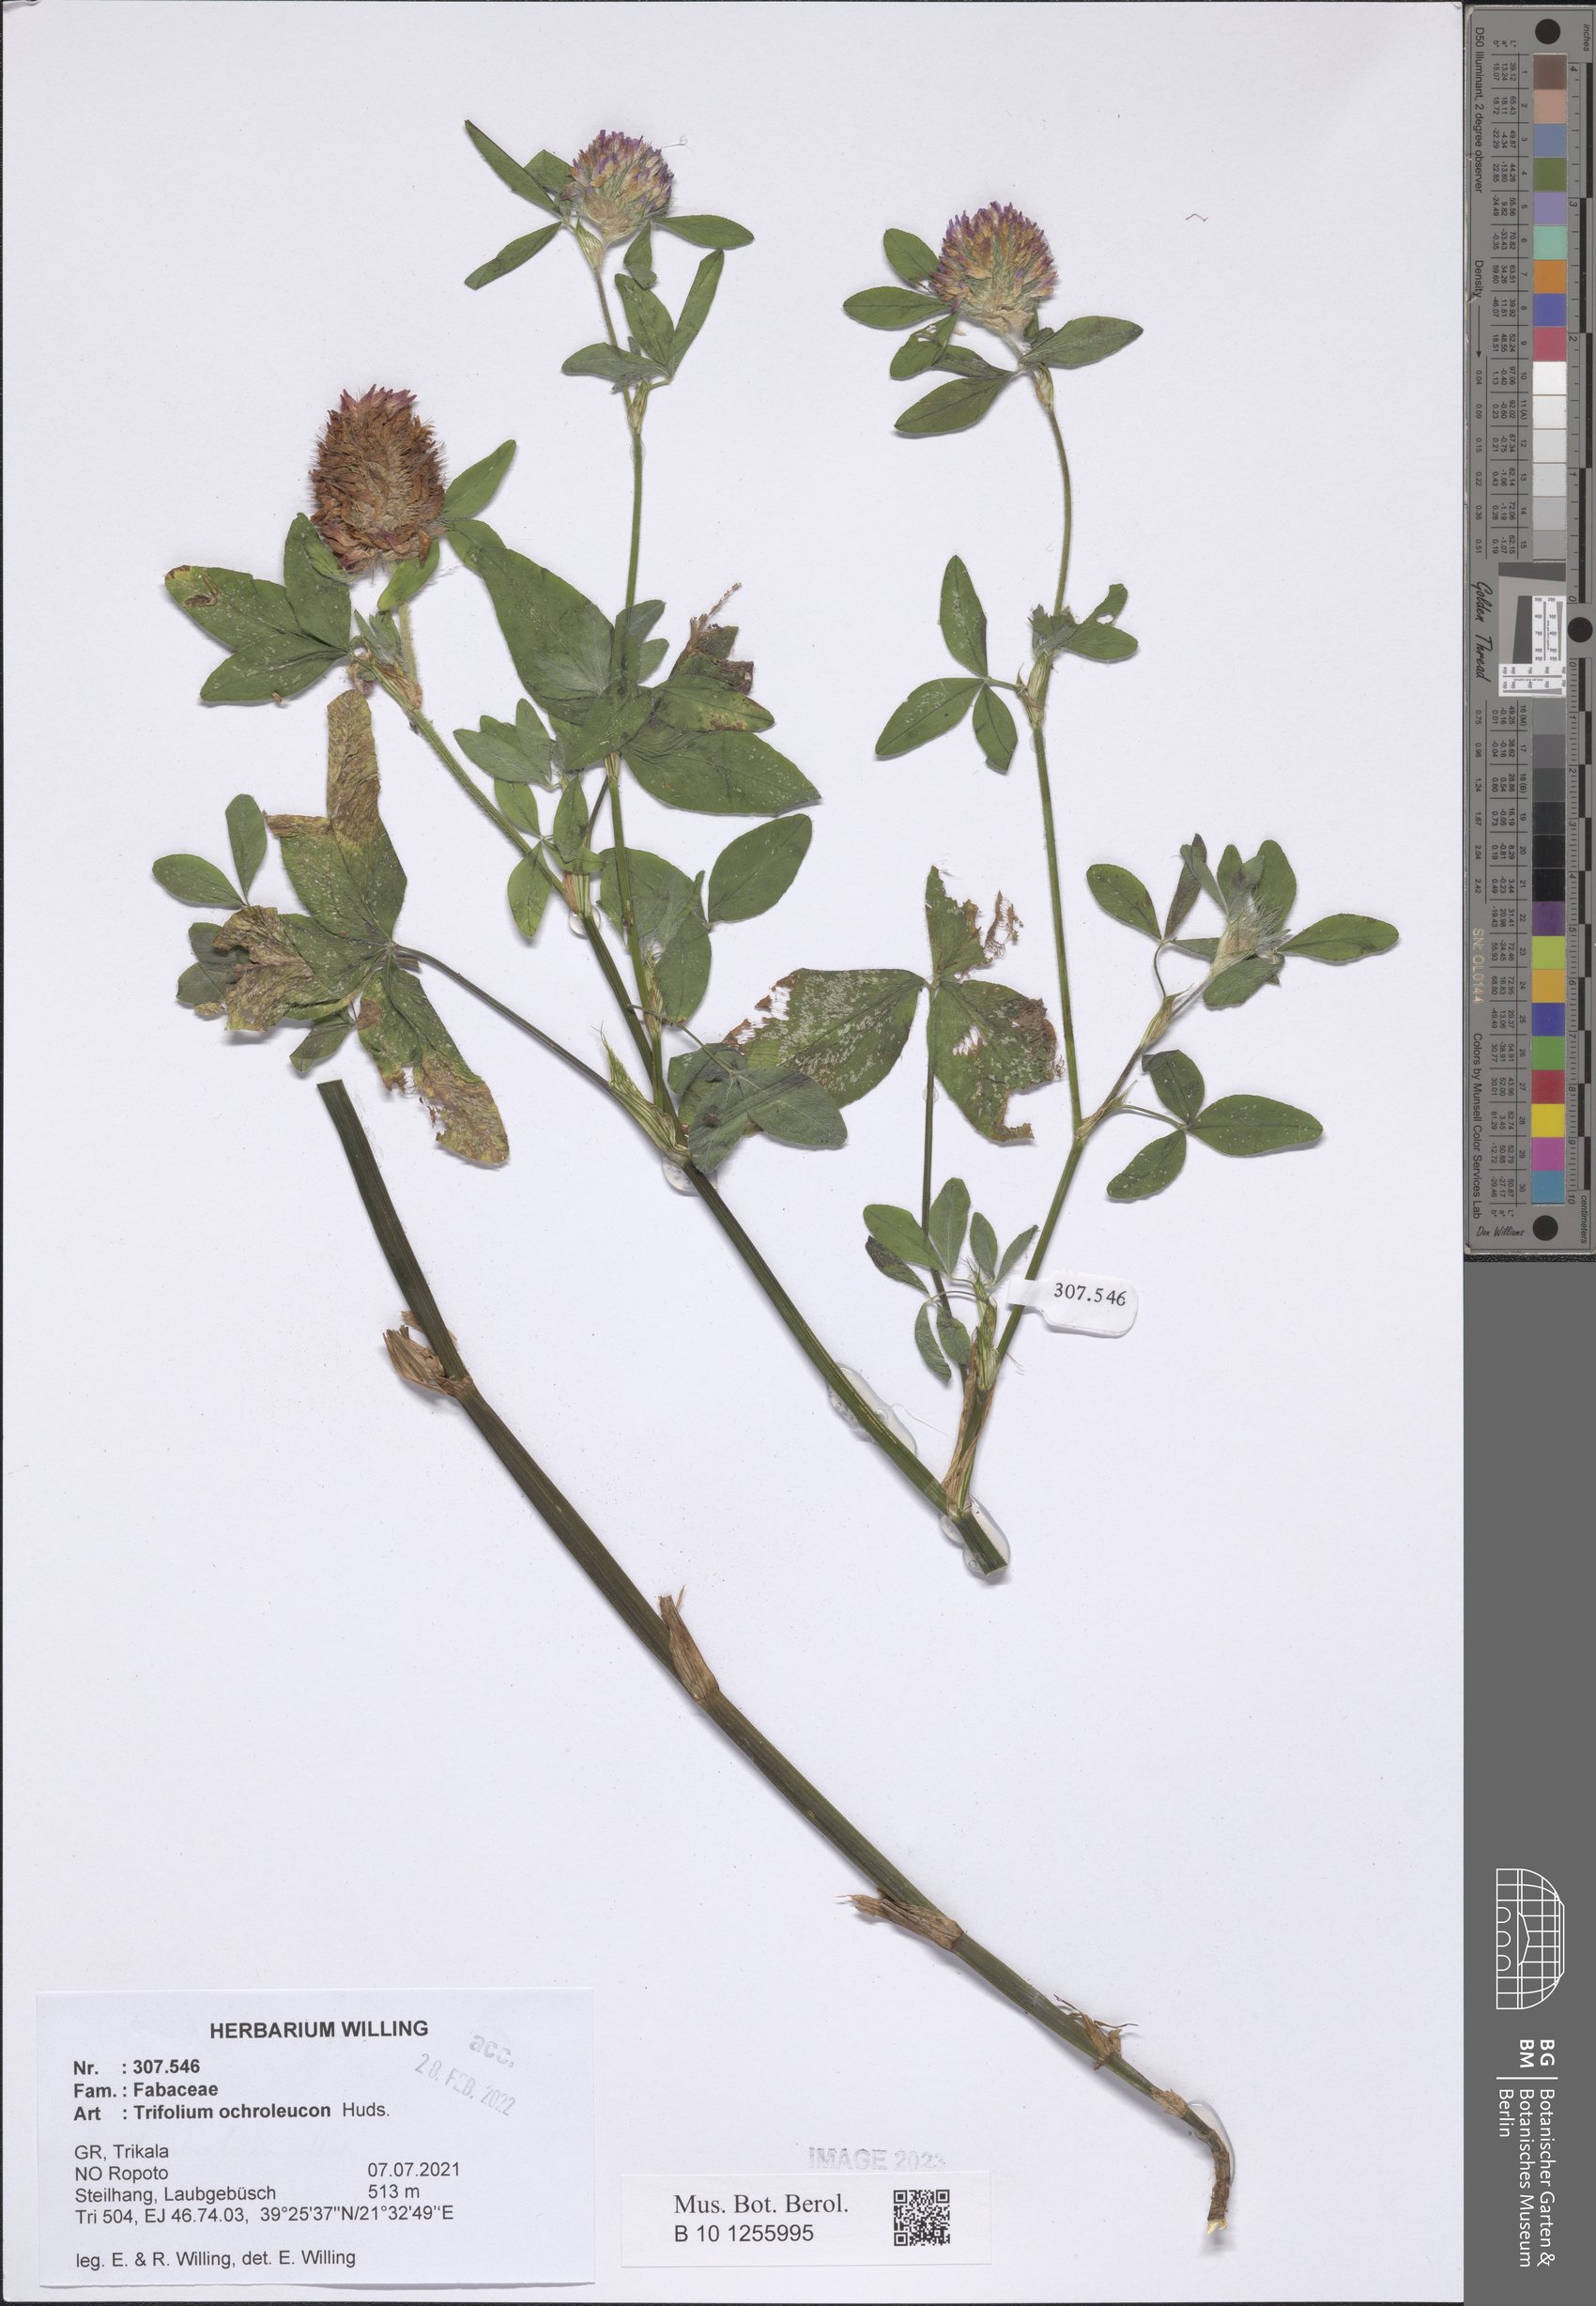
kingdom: Plantae
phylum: Tracheophyta
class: Magnoliopsida
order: Fabales
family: Fabaceae
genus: Trifolium
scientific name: Trifolium ochroleucon
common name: Sulphur clover
